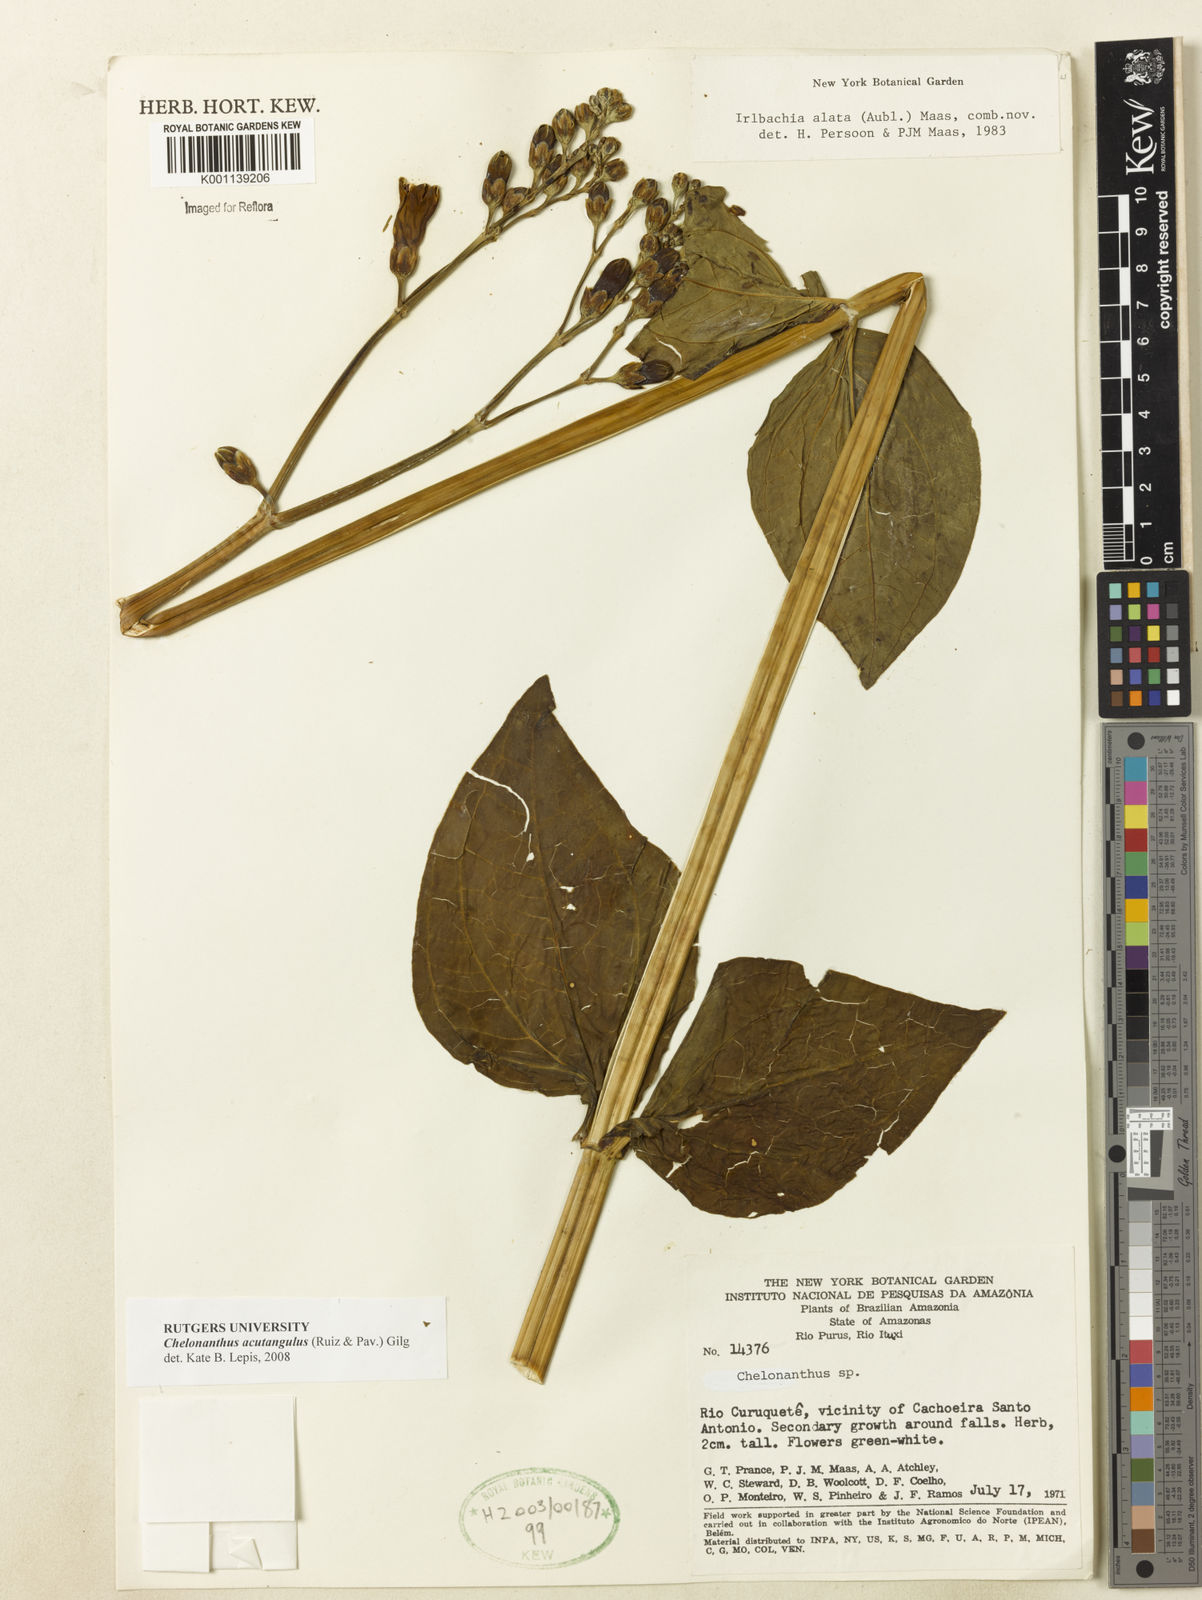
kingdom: Plantae
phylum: Tracheophyta
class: Magnoliopsida
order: Gentianales
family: Gentianaceae
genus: Chelonanthus
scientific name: Chelonanthus alatus
